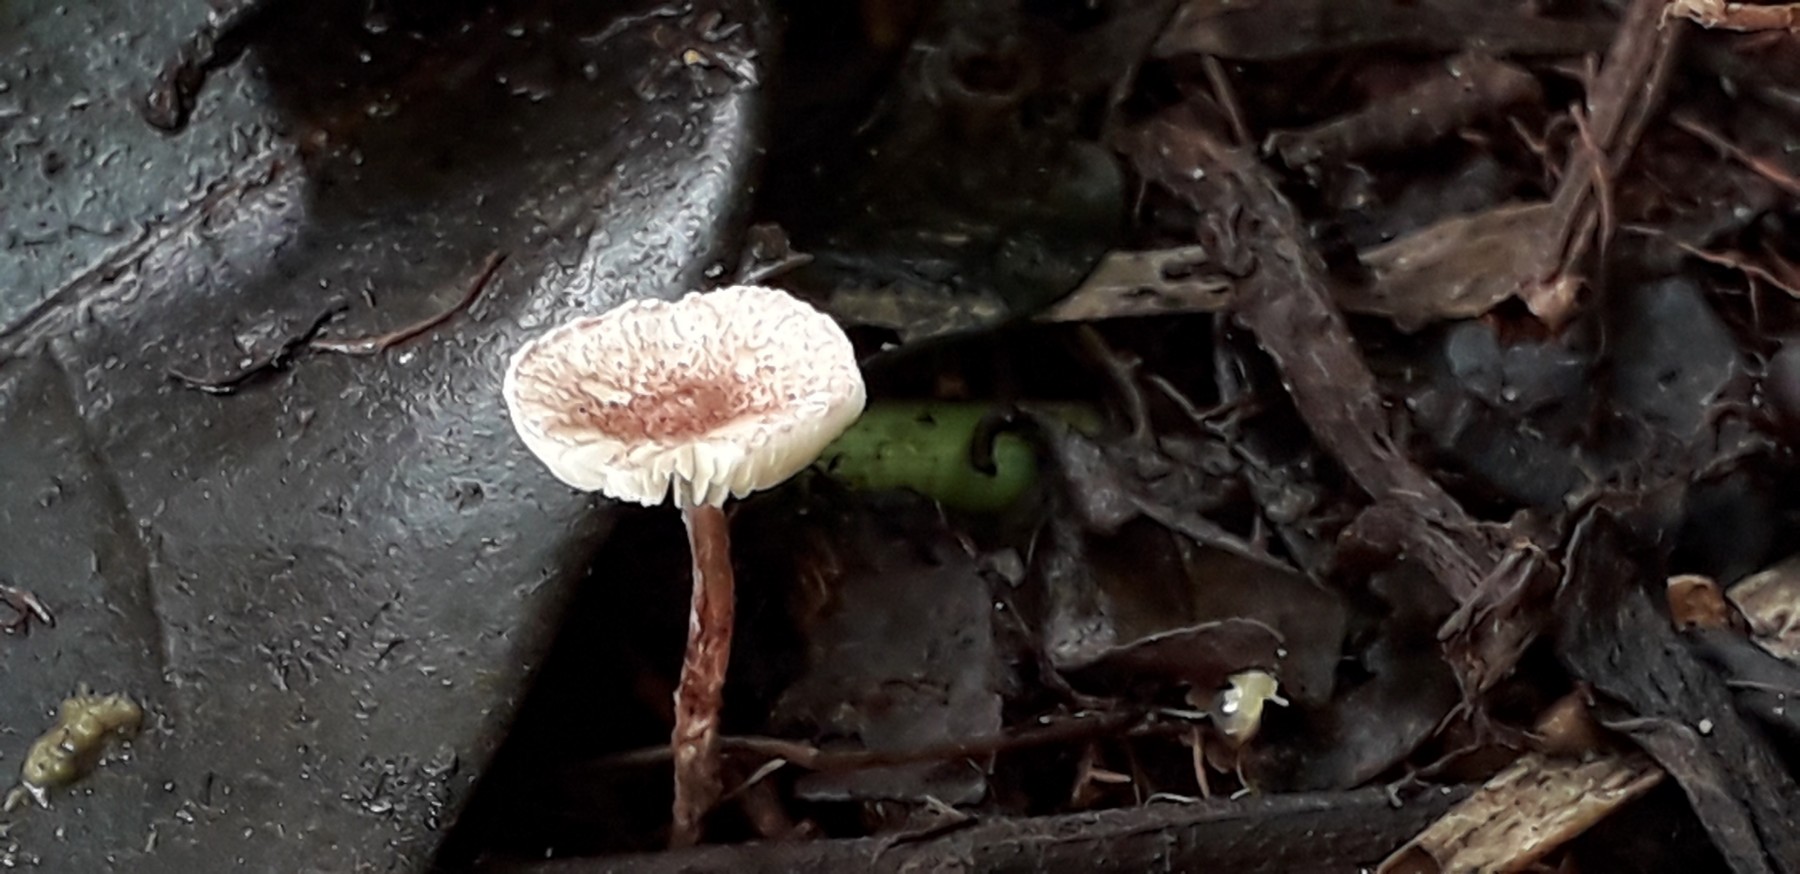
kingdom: Fungi
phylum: Basidiomycota
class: Agaricomycetes
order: Agaricales
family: Agaricaceae
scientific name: Agaricaceae
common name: champignonfamilien
